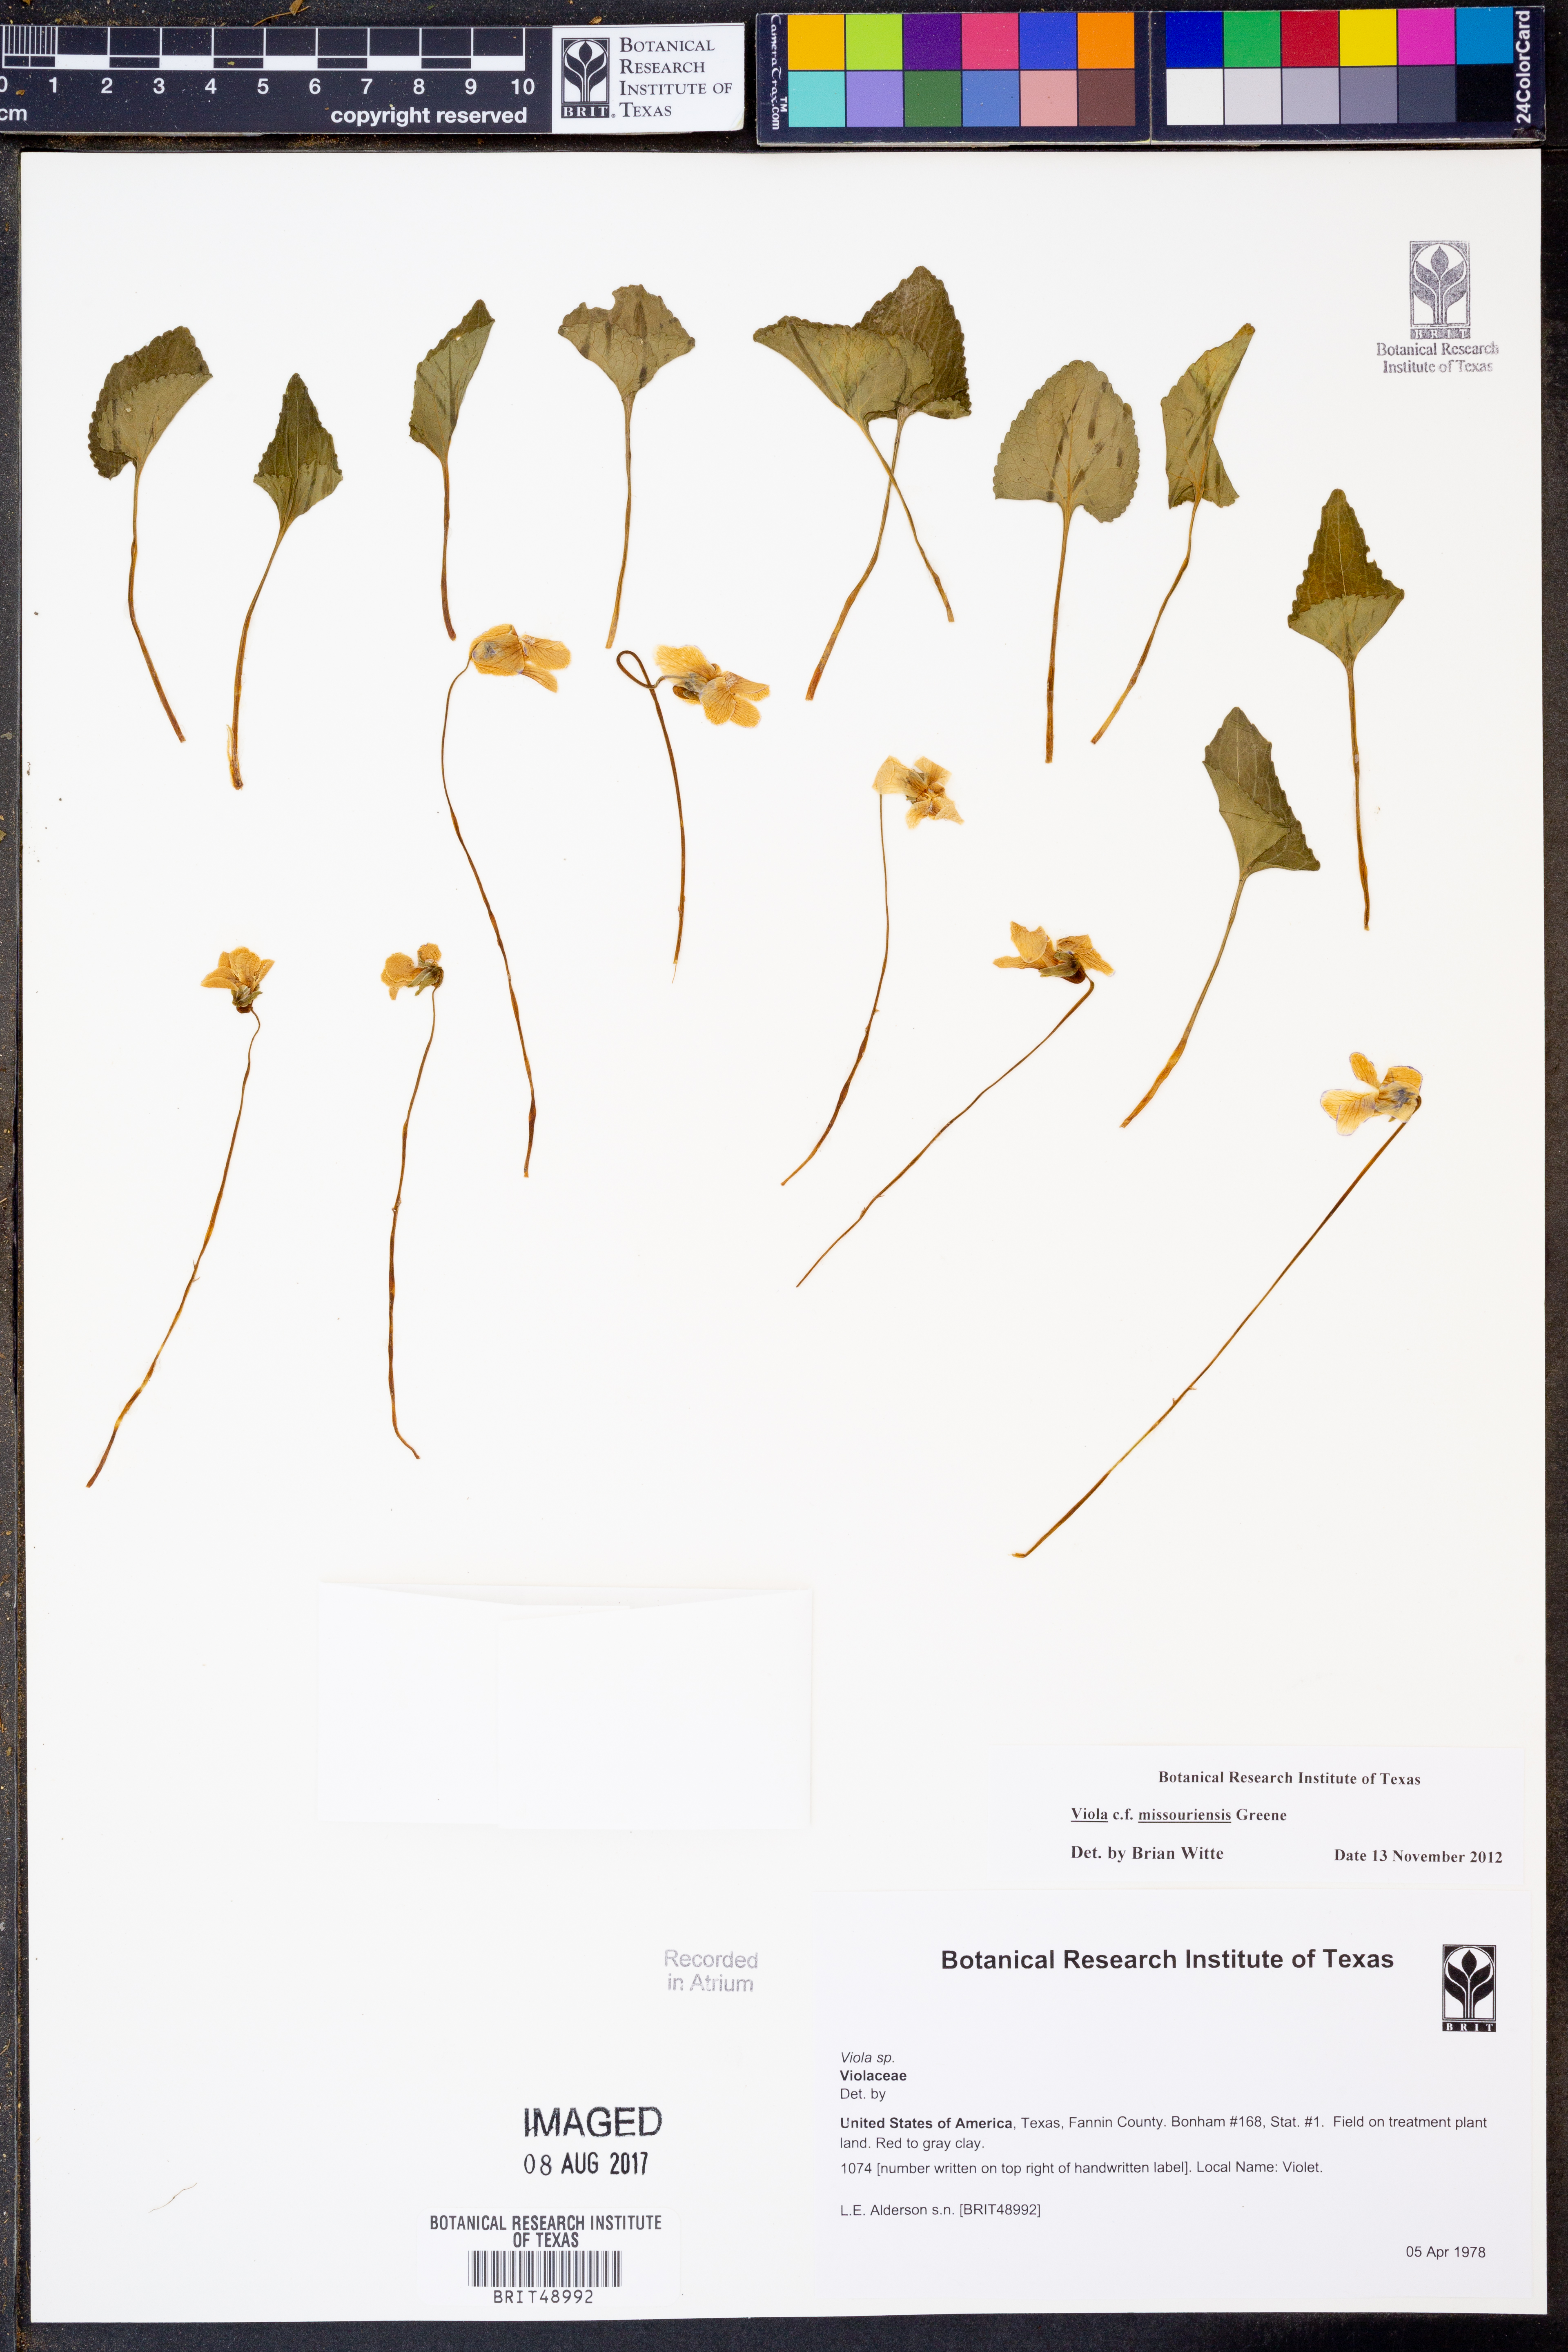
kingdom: Plantae
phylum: Tracheophyta
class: Magnoliopsida
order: Malpighiales
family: Violaceae
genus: Viola
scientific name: Viola
